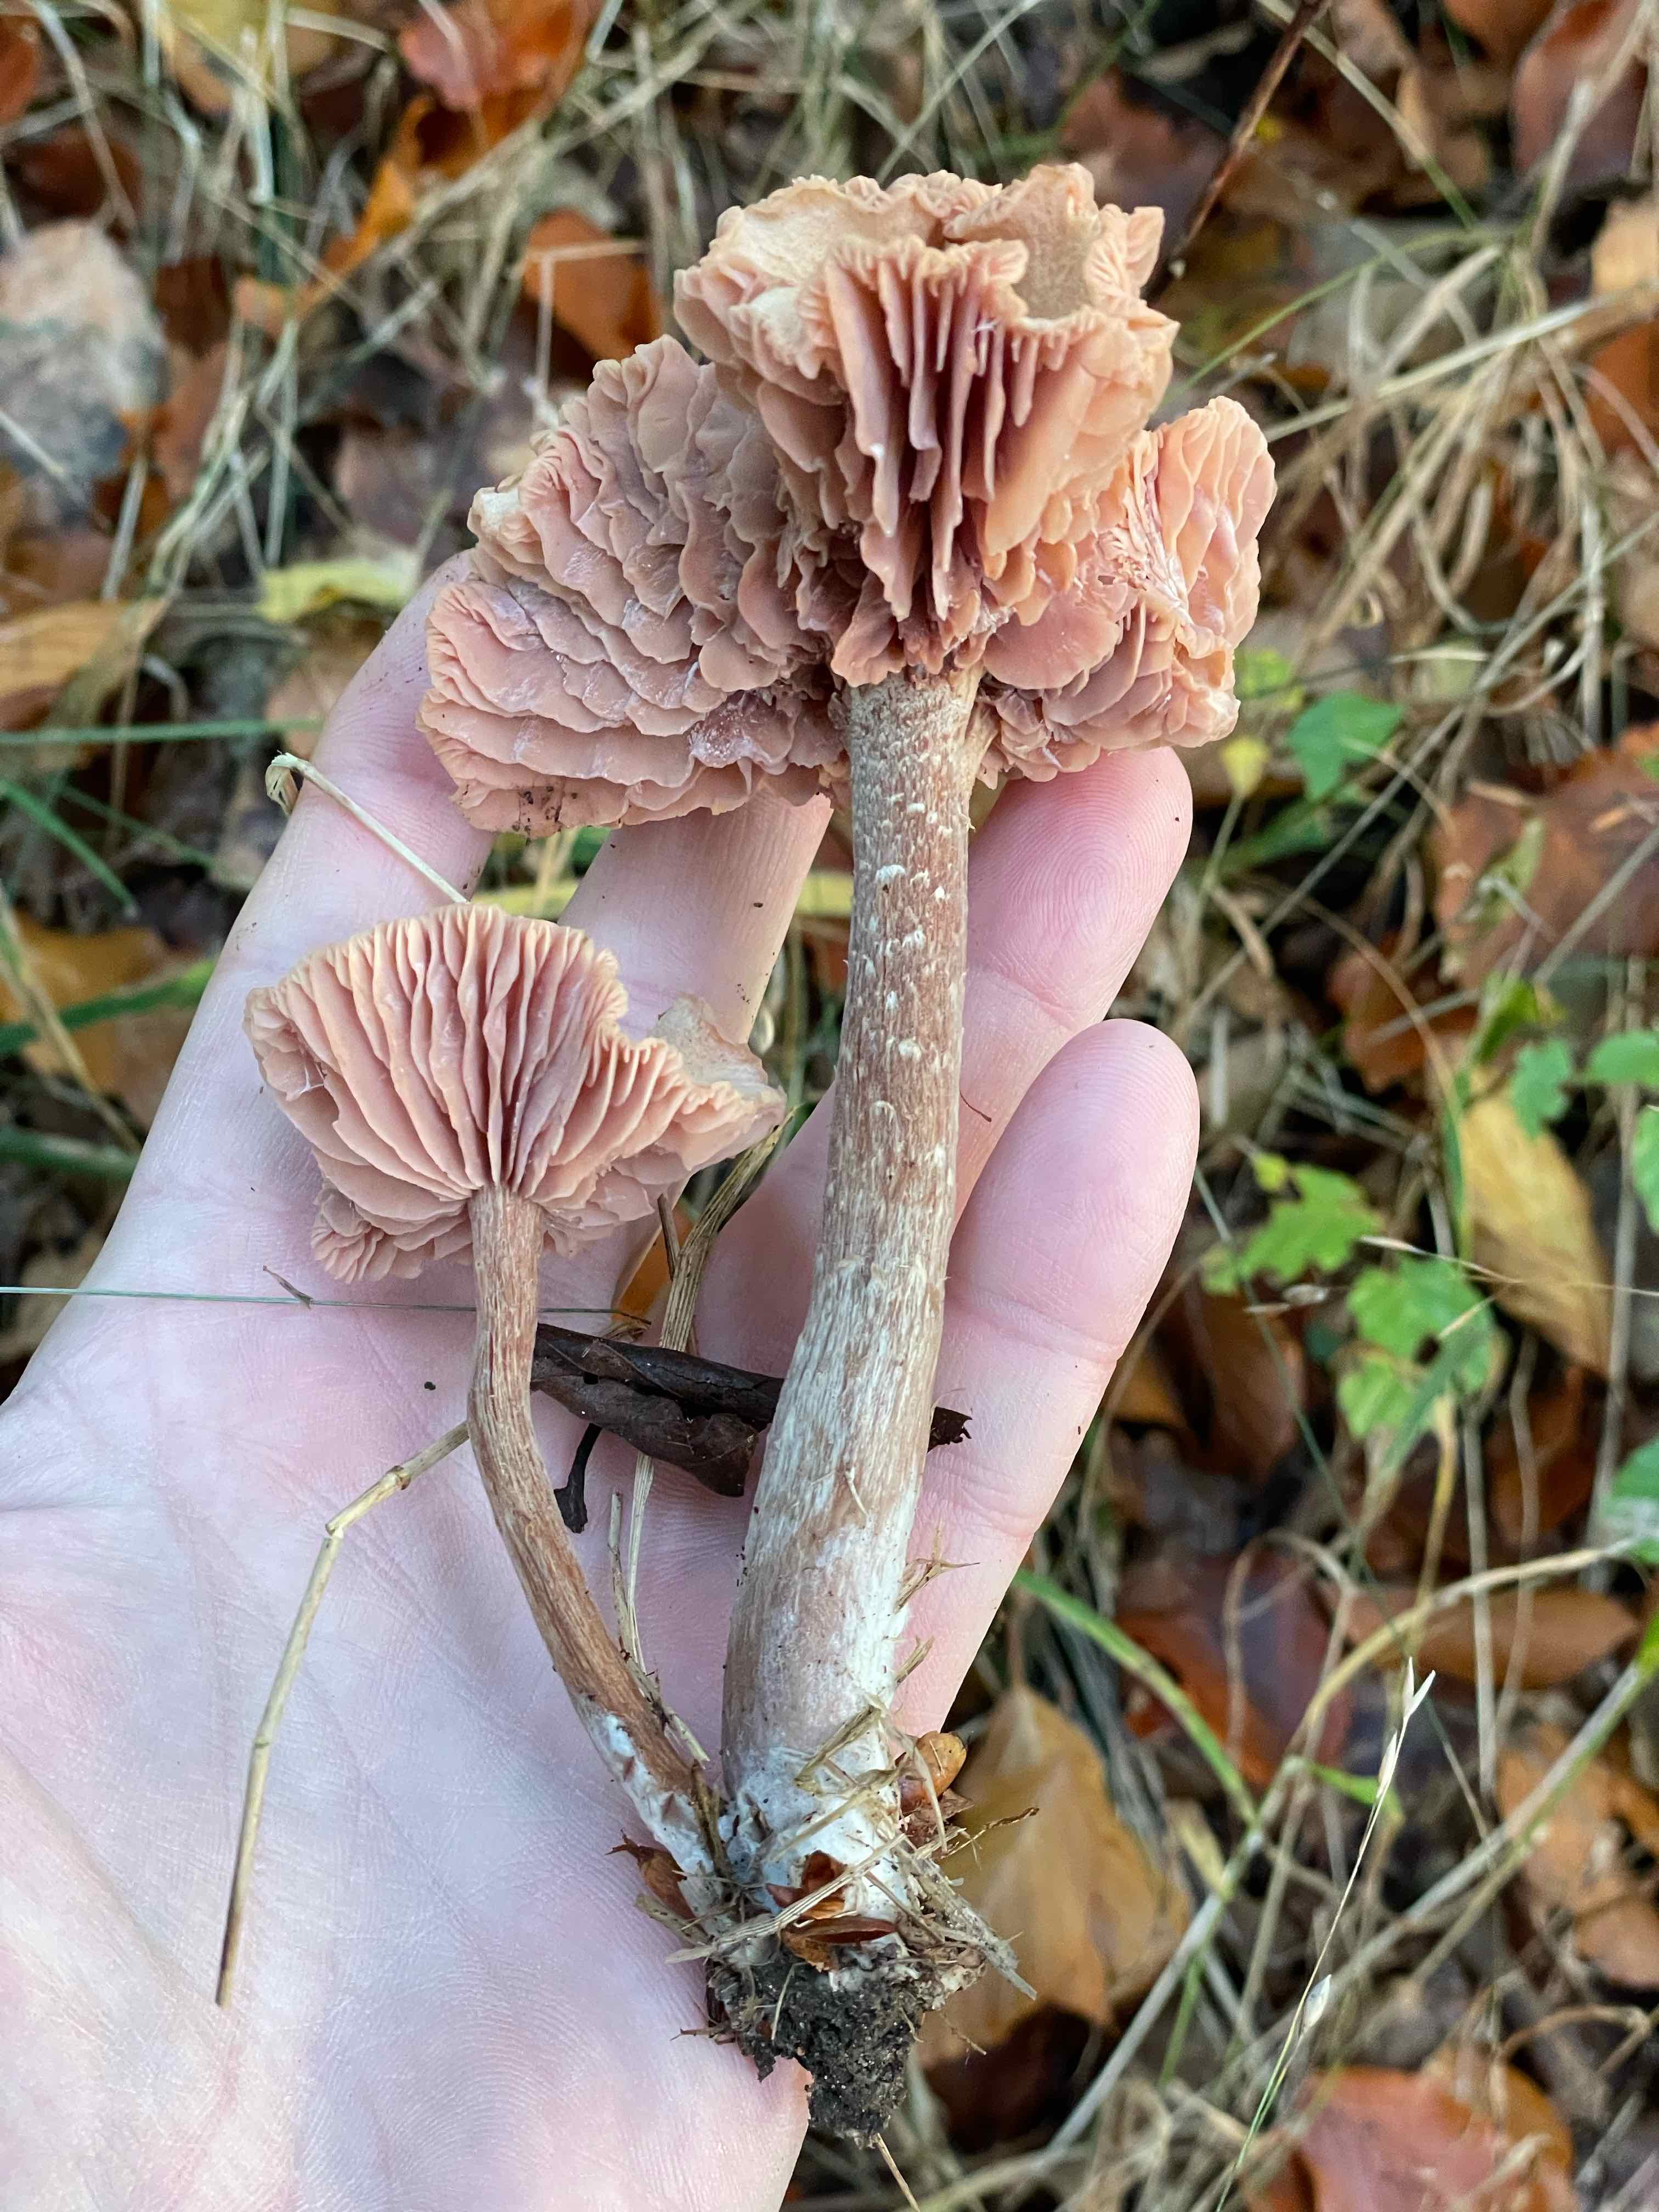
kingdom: Fungi
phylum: Basidiomycota
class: Agaricomycetes
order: Agaricales
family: Hydnangiaceae
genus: Laccaria
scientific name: Laccaria proxima
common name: stor ametysthat
